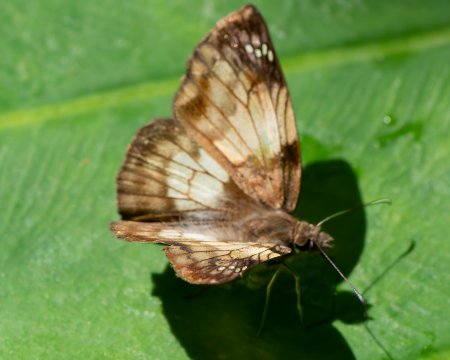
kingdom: Animalia
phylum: Arthropoda
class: Insecta
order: Lepidoptera
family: Hesperiidae
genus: Erynnis
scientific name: Erynnis
